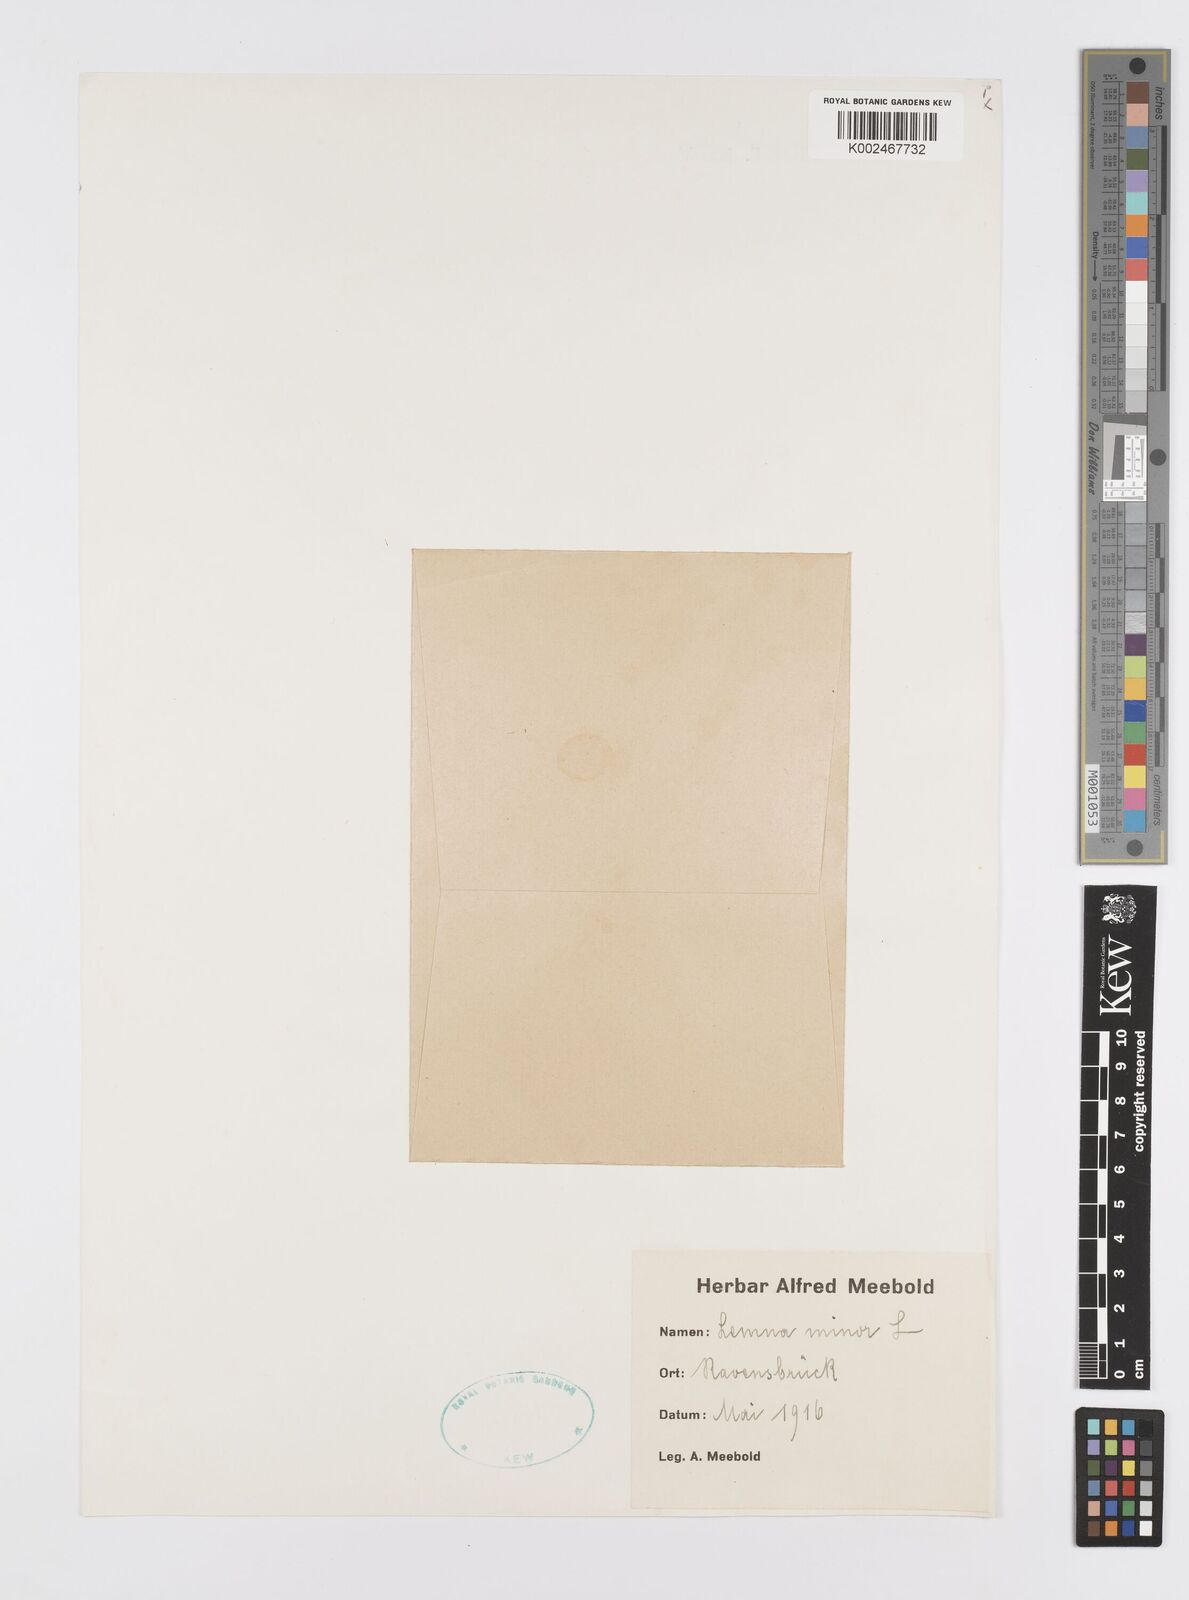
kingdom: Plantae
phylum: Tracheophyta
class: Liliopsida
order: Alismatales
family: Araceae
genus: Lemna
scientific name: Lemna minor
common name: Common duckweed
